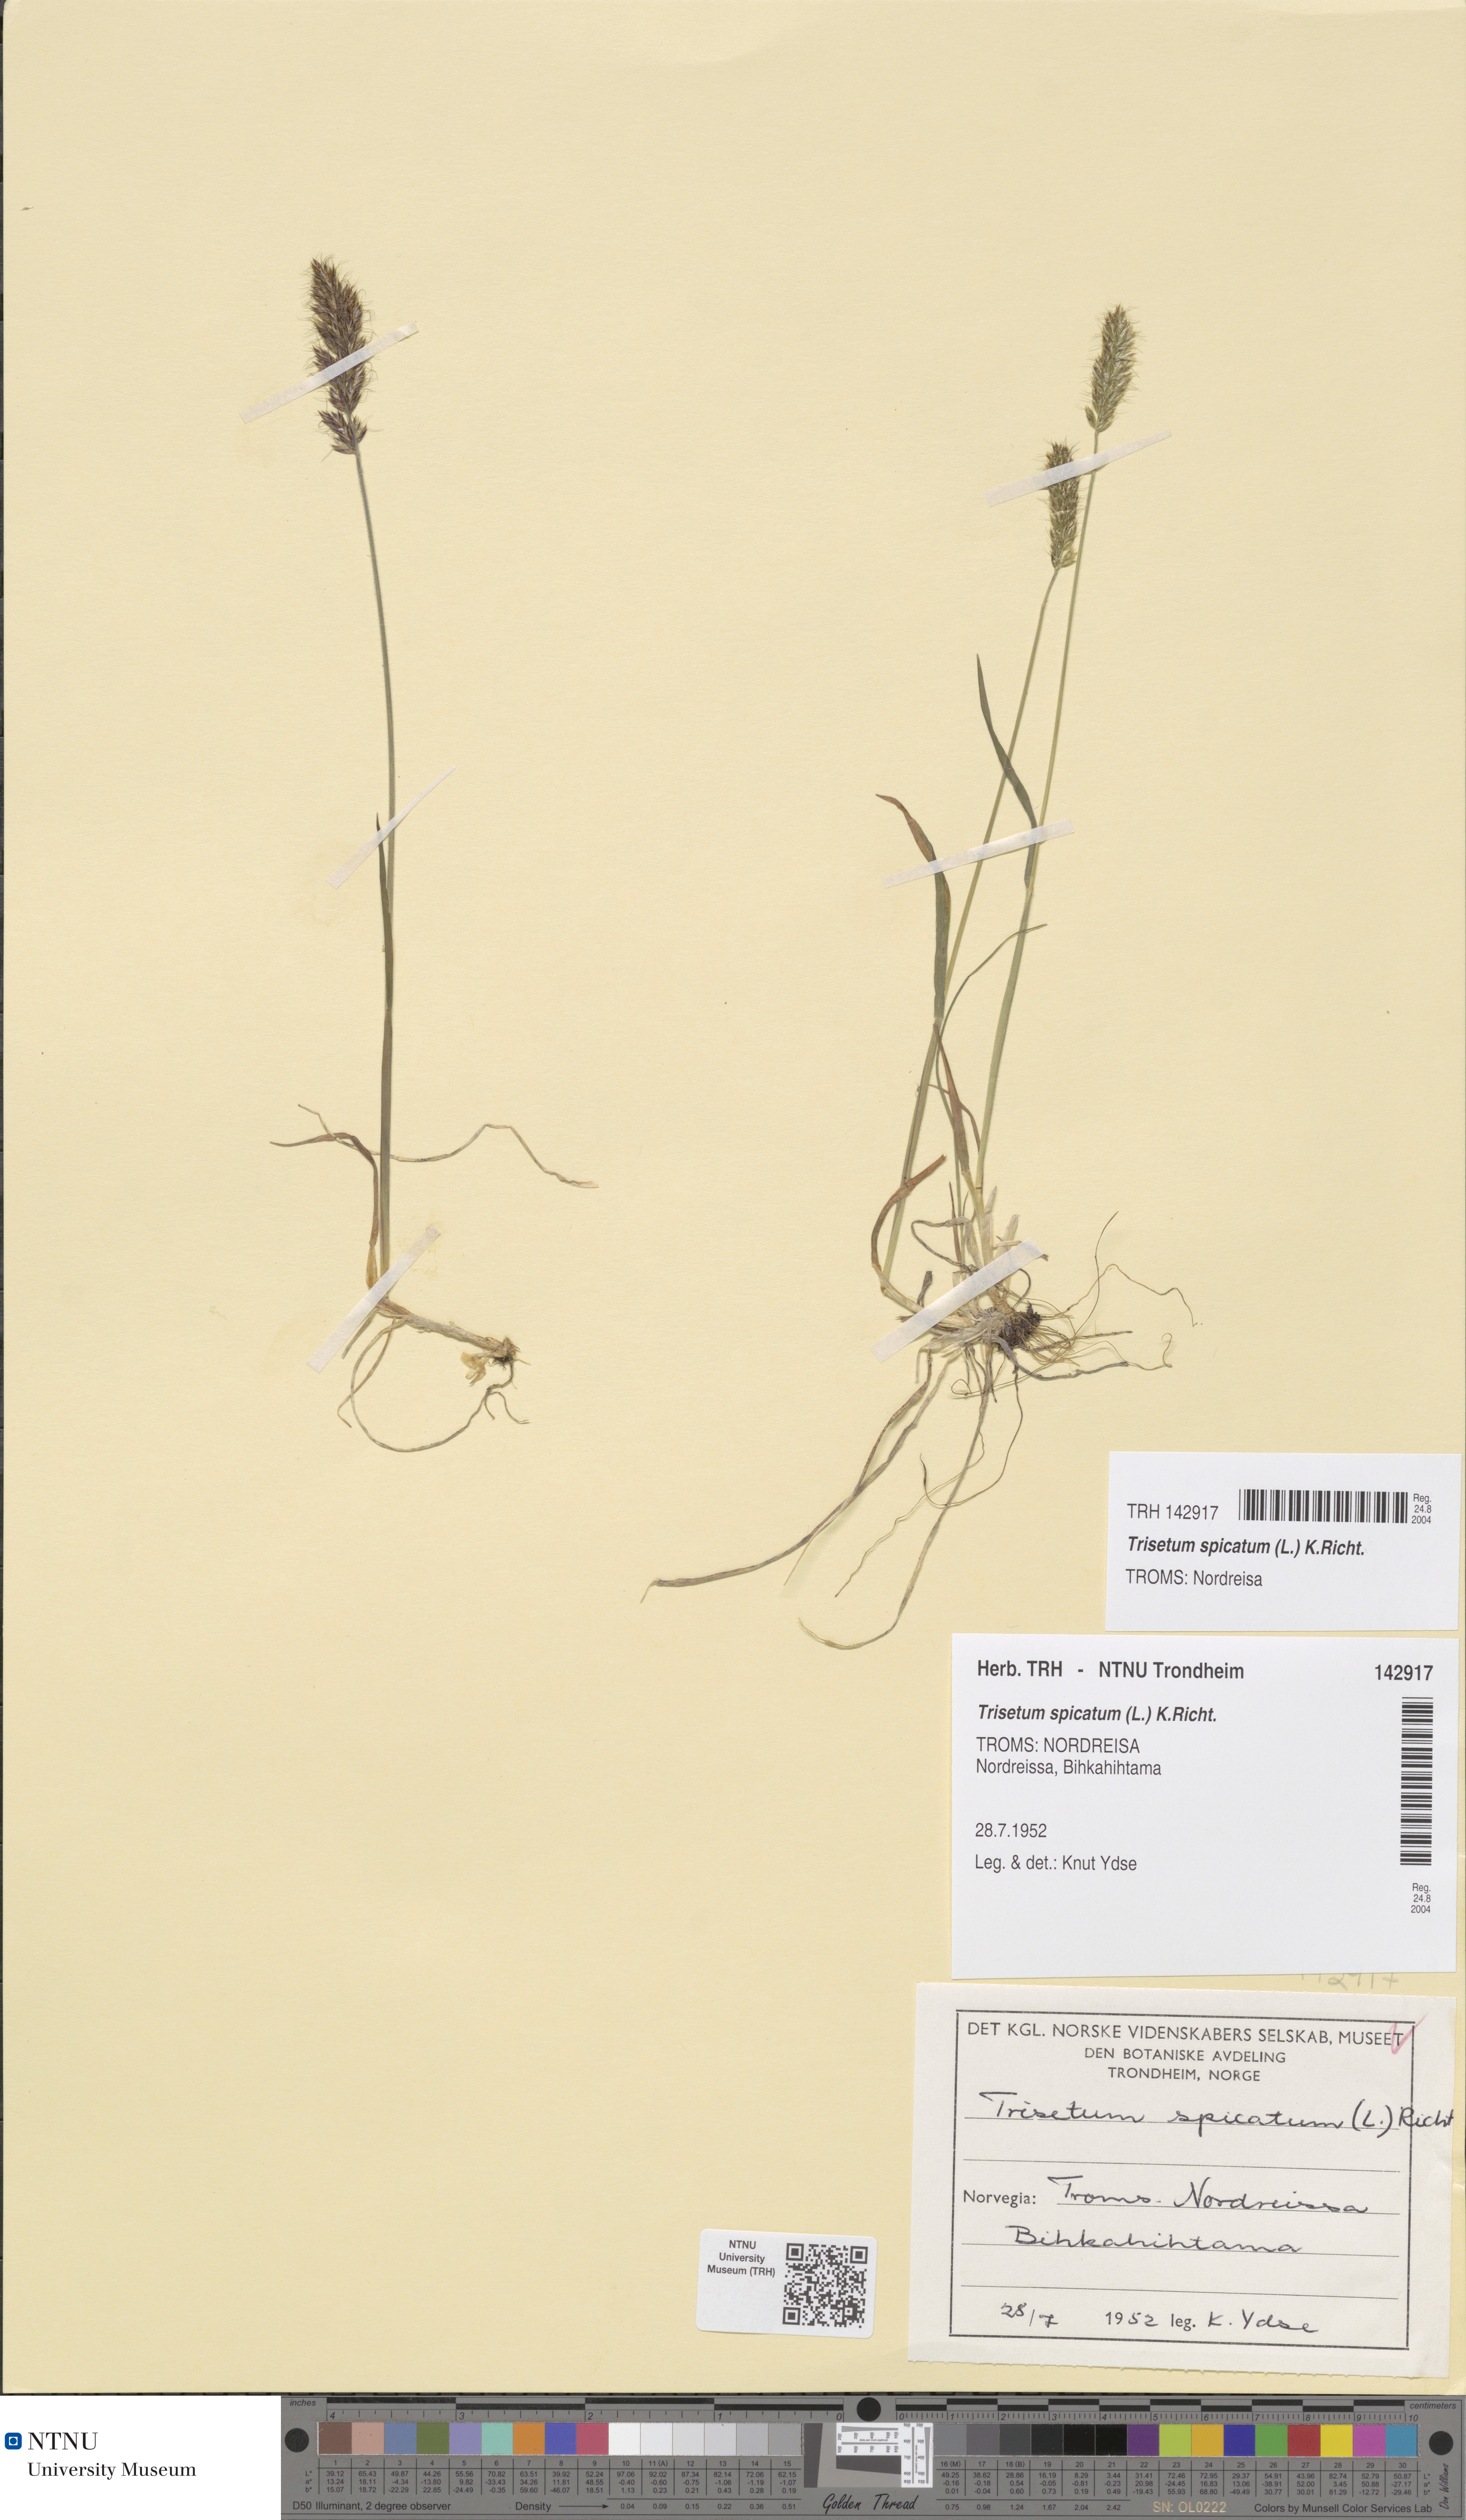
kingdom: Plantae
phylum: Tracheophyta
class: Liliopsida
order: Poales
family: Poaceae
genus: Koeleria
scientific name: Koeleria spicata
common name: Mountain trisetum
